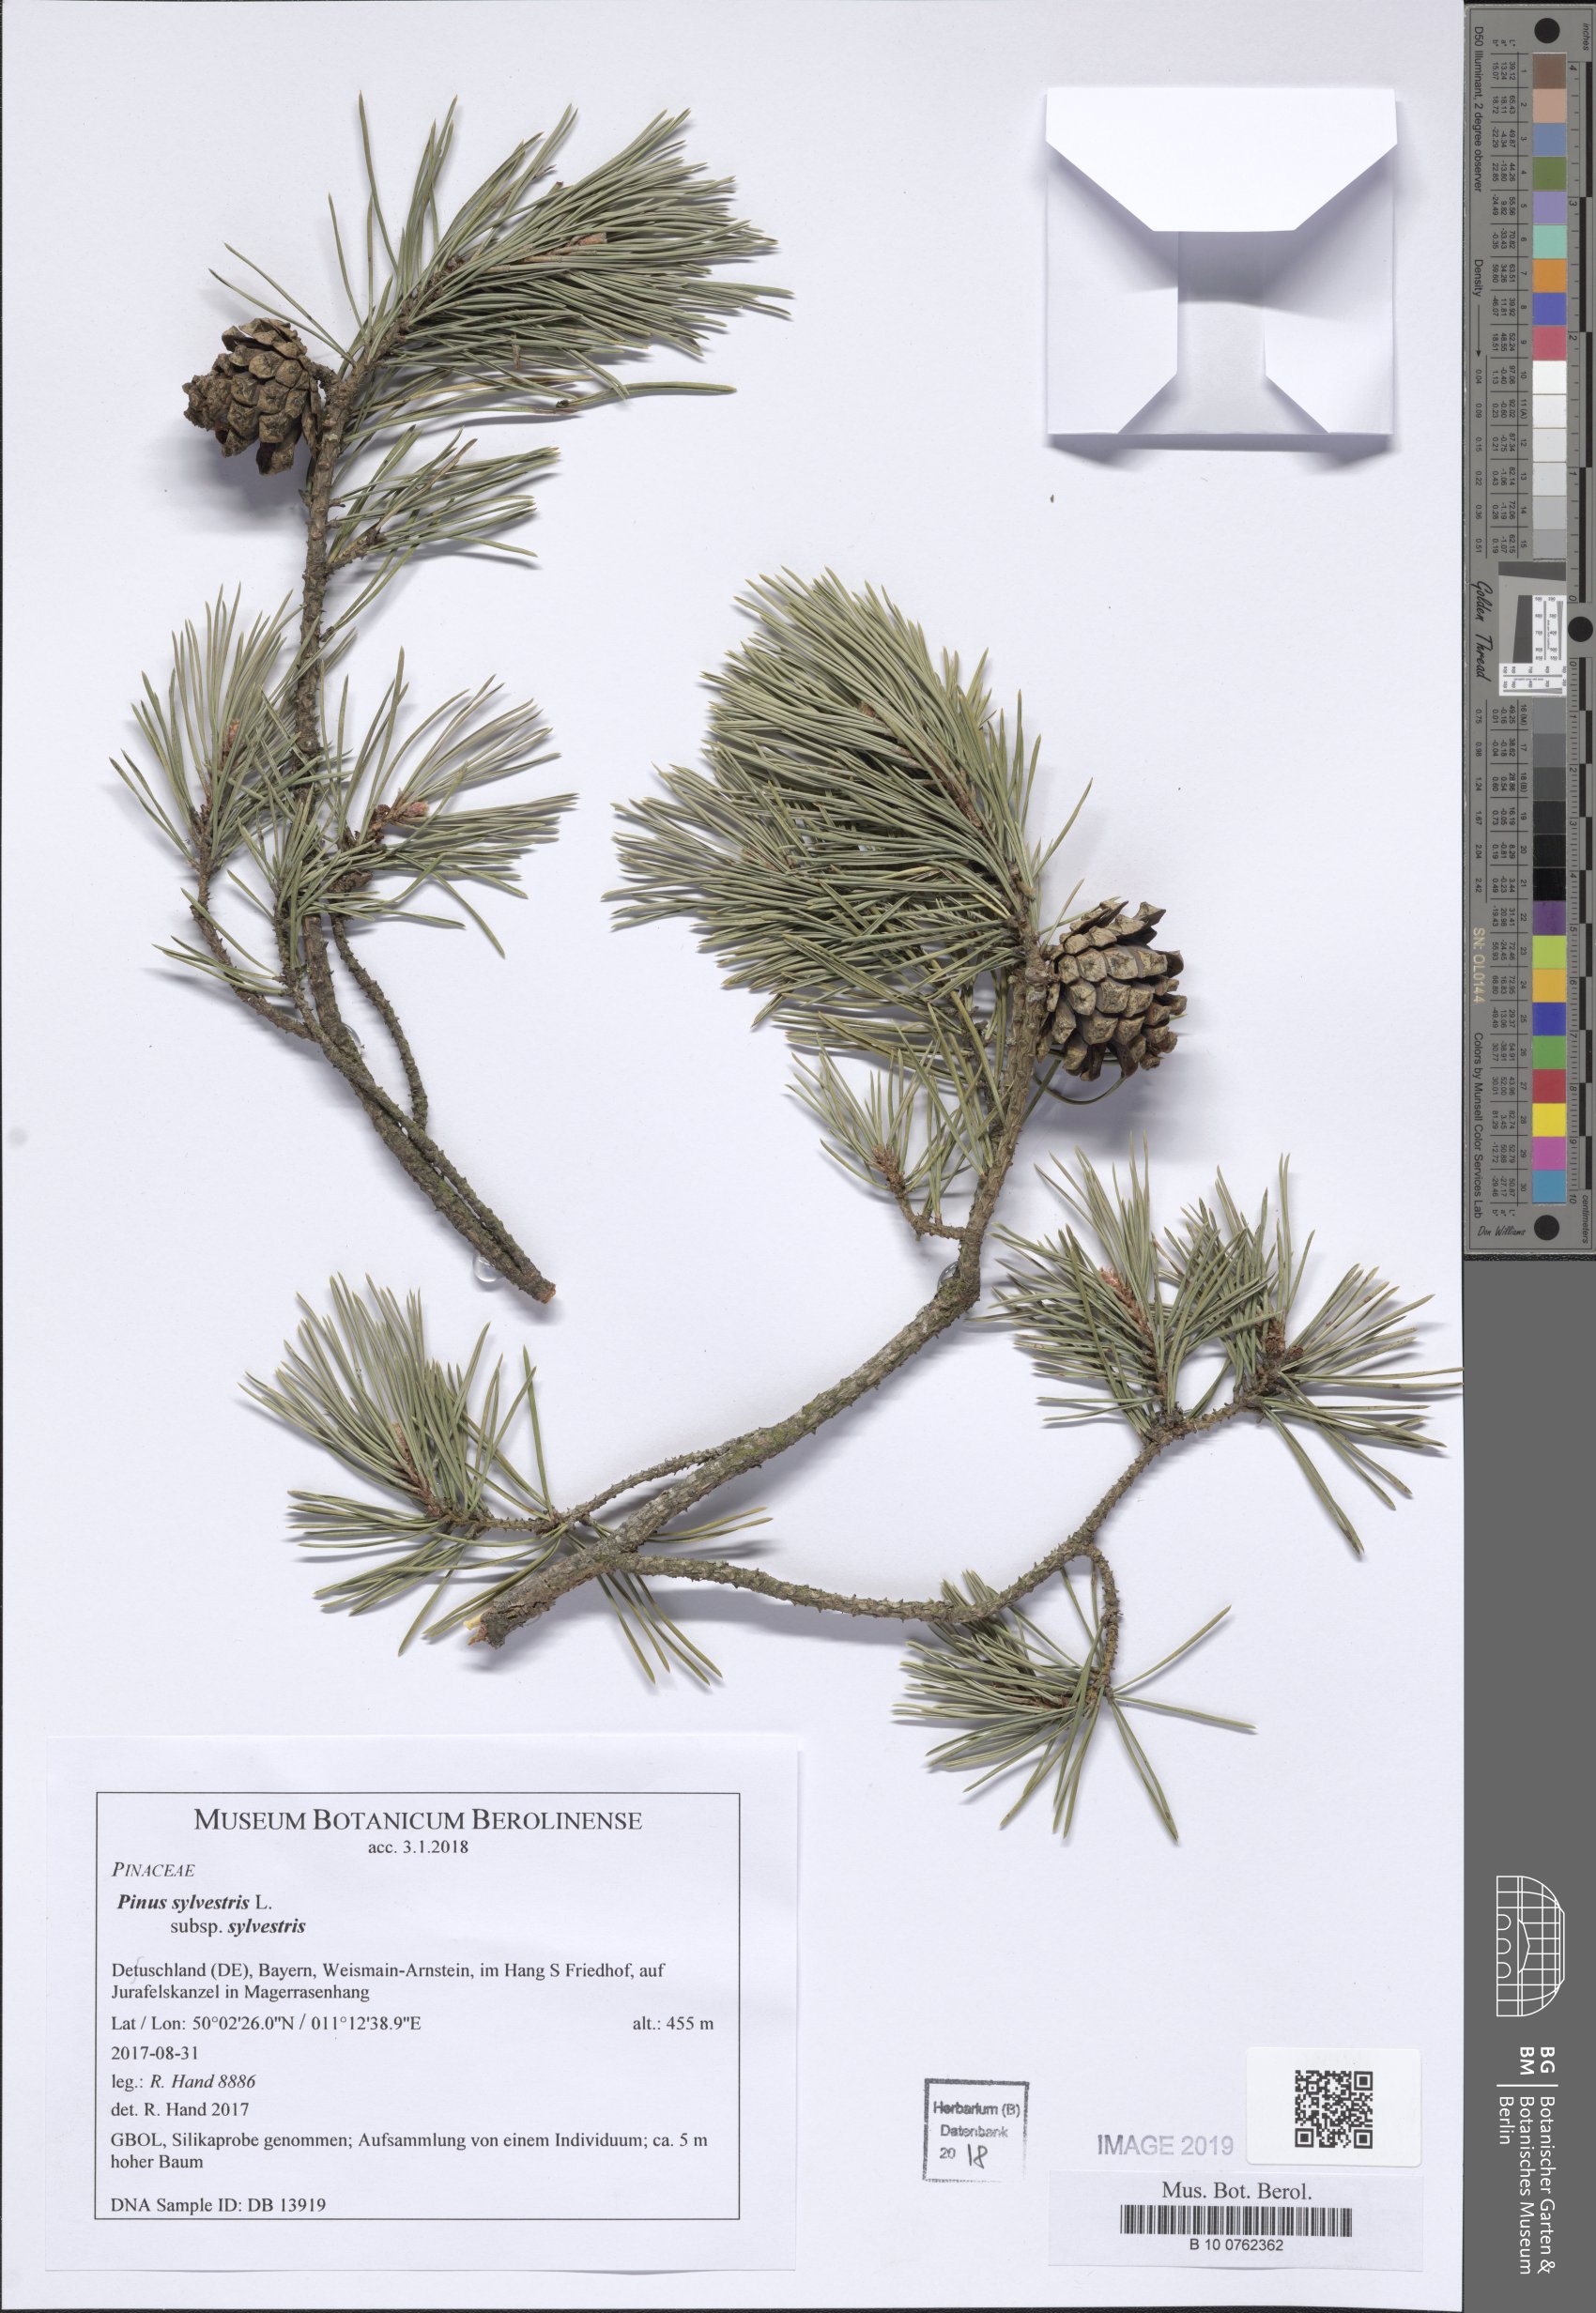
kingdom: Plantae
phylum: Tracheophyta
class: Pinopsida
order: Pinales
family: Pinaceae
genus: Pinus
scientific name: Pinus sylvestris
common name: Scots pine
